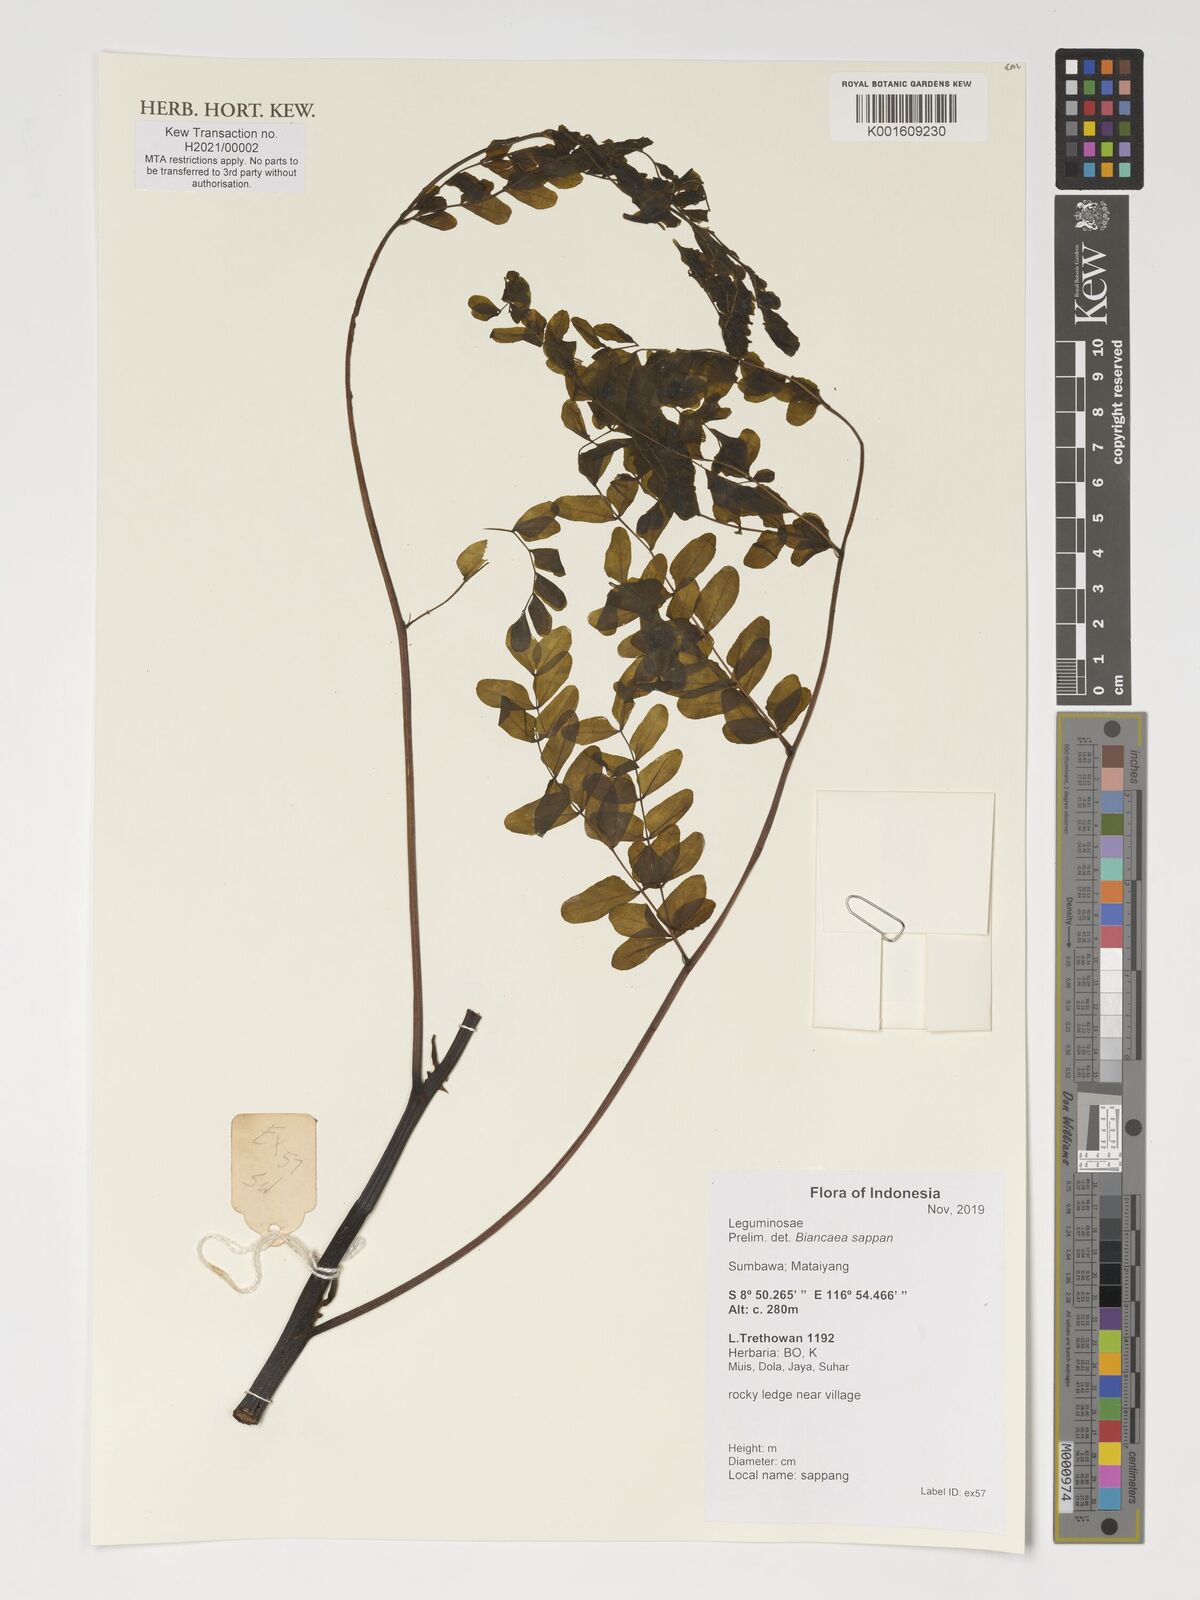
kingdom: Plantae
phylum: Tracheophyta
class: Magnoliopsida
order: Fabales
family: Fabaceae
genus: Biancaea
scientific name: Biancaea sappan
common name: Sappan
